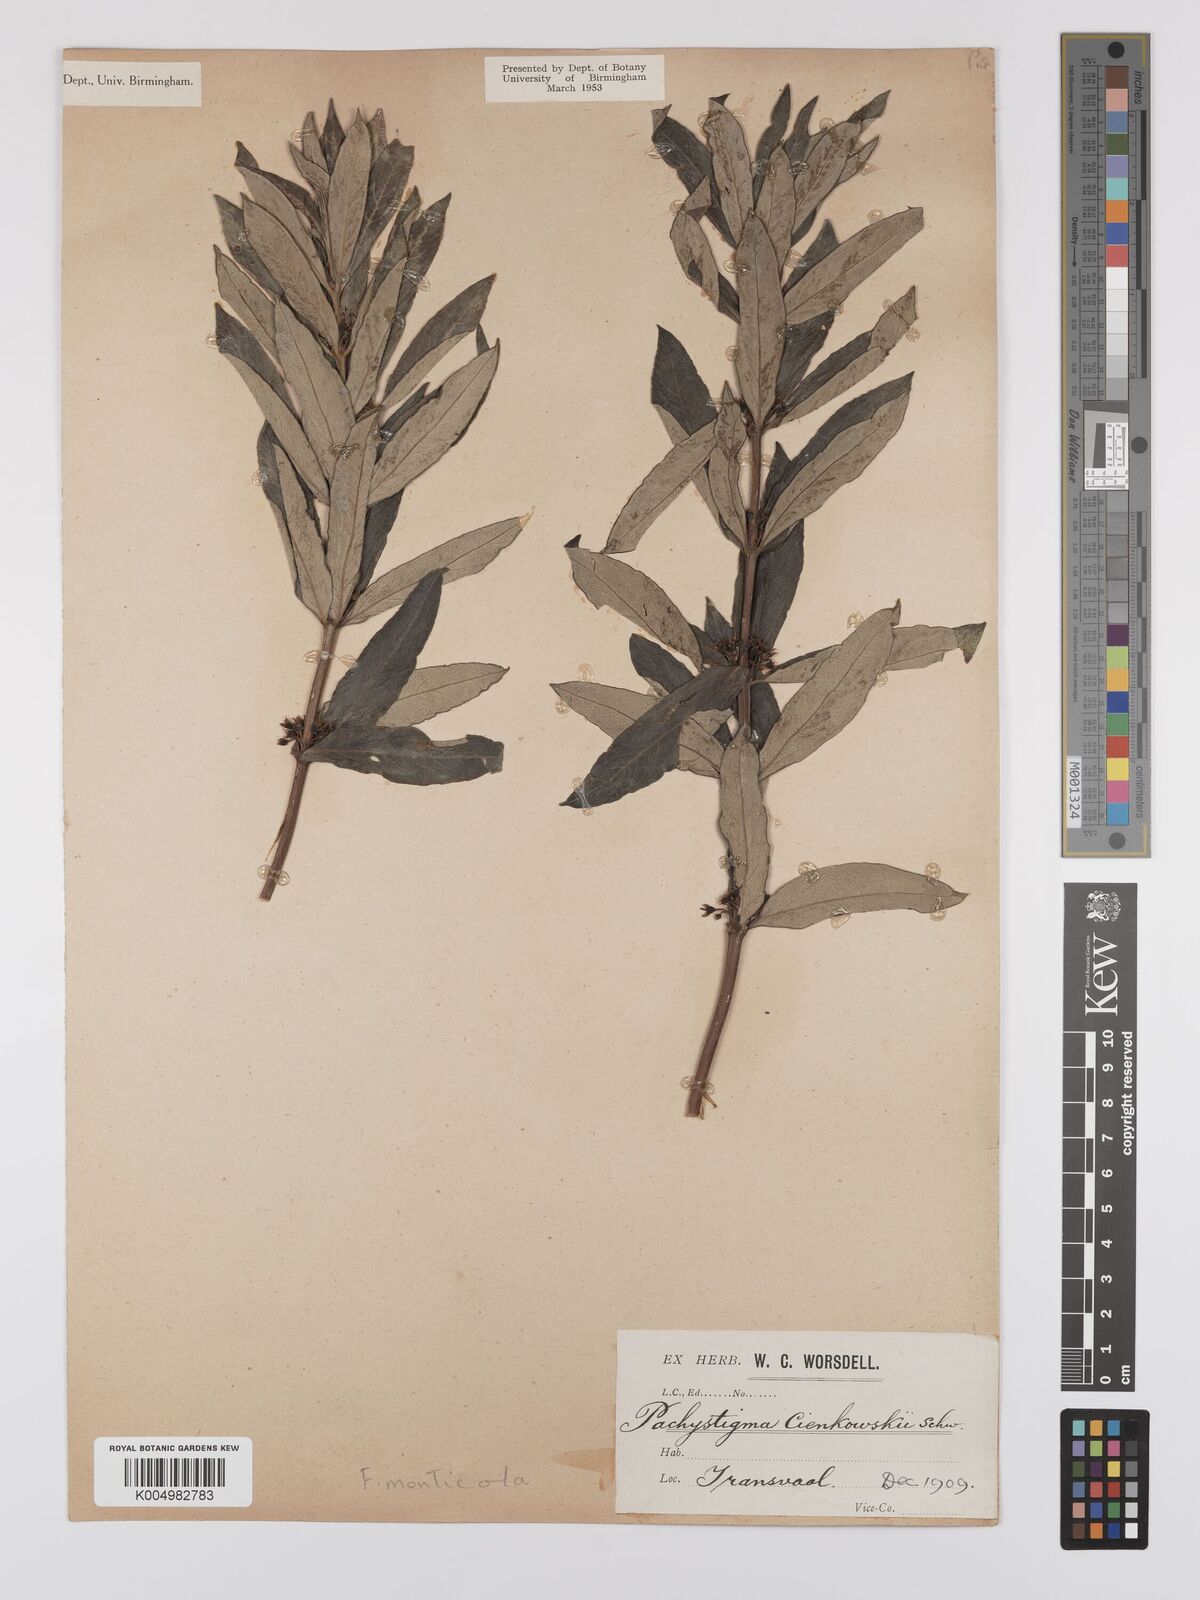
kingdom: Plantae
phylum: Tracheophyta
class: Magnoliopsida
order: Gentianales
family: Rubiaceae
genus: Fadogia
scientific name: Fadogia homblei
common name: Wild date
